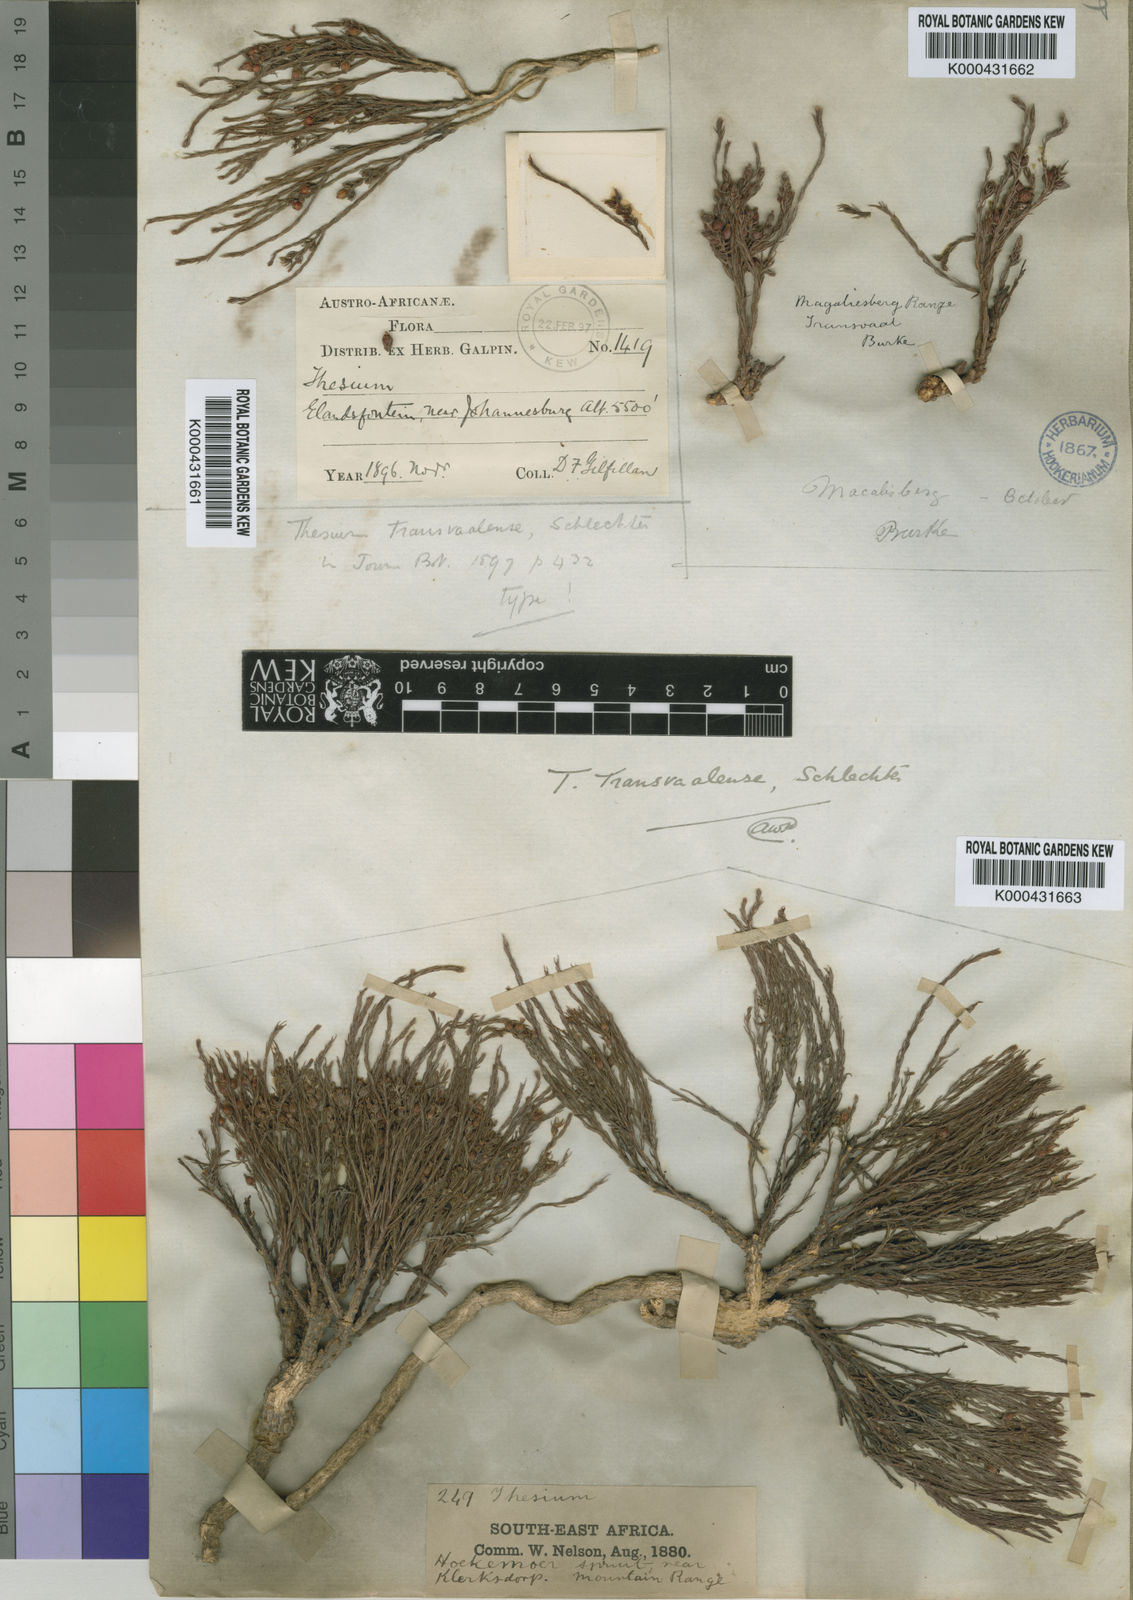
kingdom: Plantae
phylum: Tracheophyta
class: Magnoliopsida
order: Santalales
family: Thesiaceae
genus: Thesium
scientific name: Thesium transvaalense
